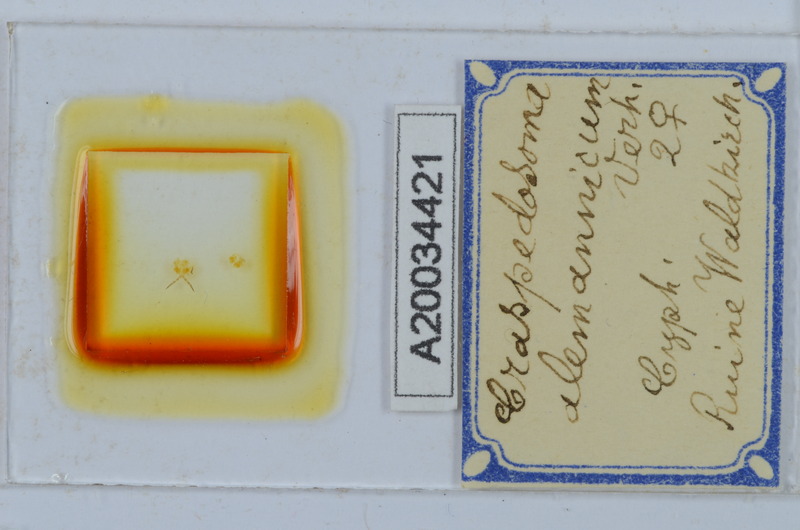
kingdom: Animalia
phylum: Arthropoda
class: Diplopoda
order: Chordeumatida
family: Craspedosomatidae
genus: Craspedosoma
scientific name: Craspedosoma alemannicum
